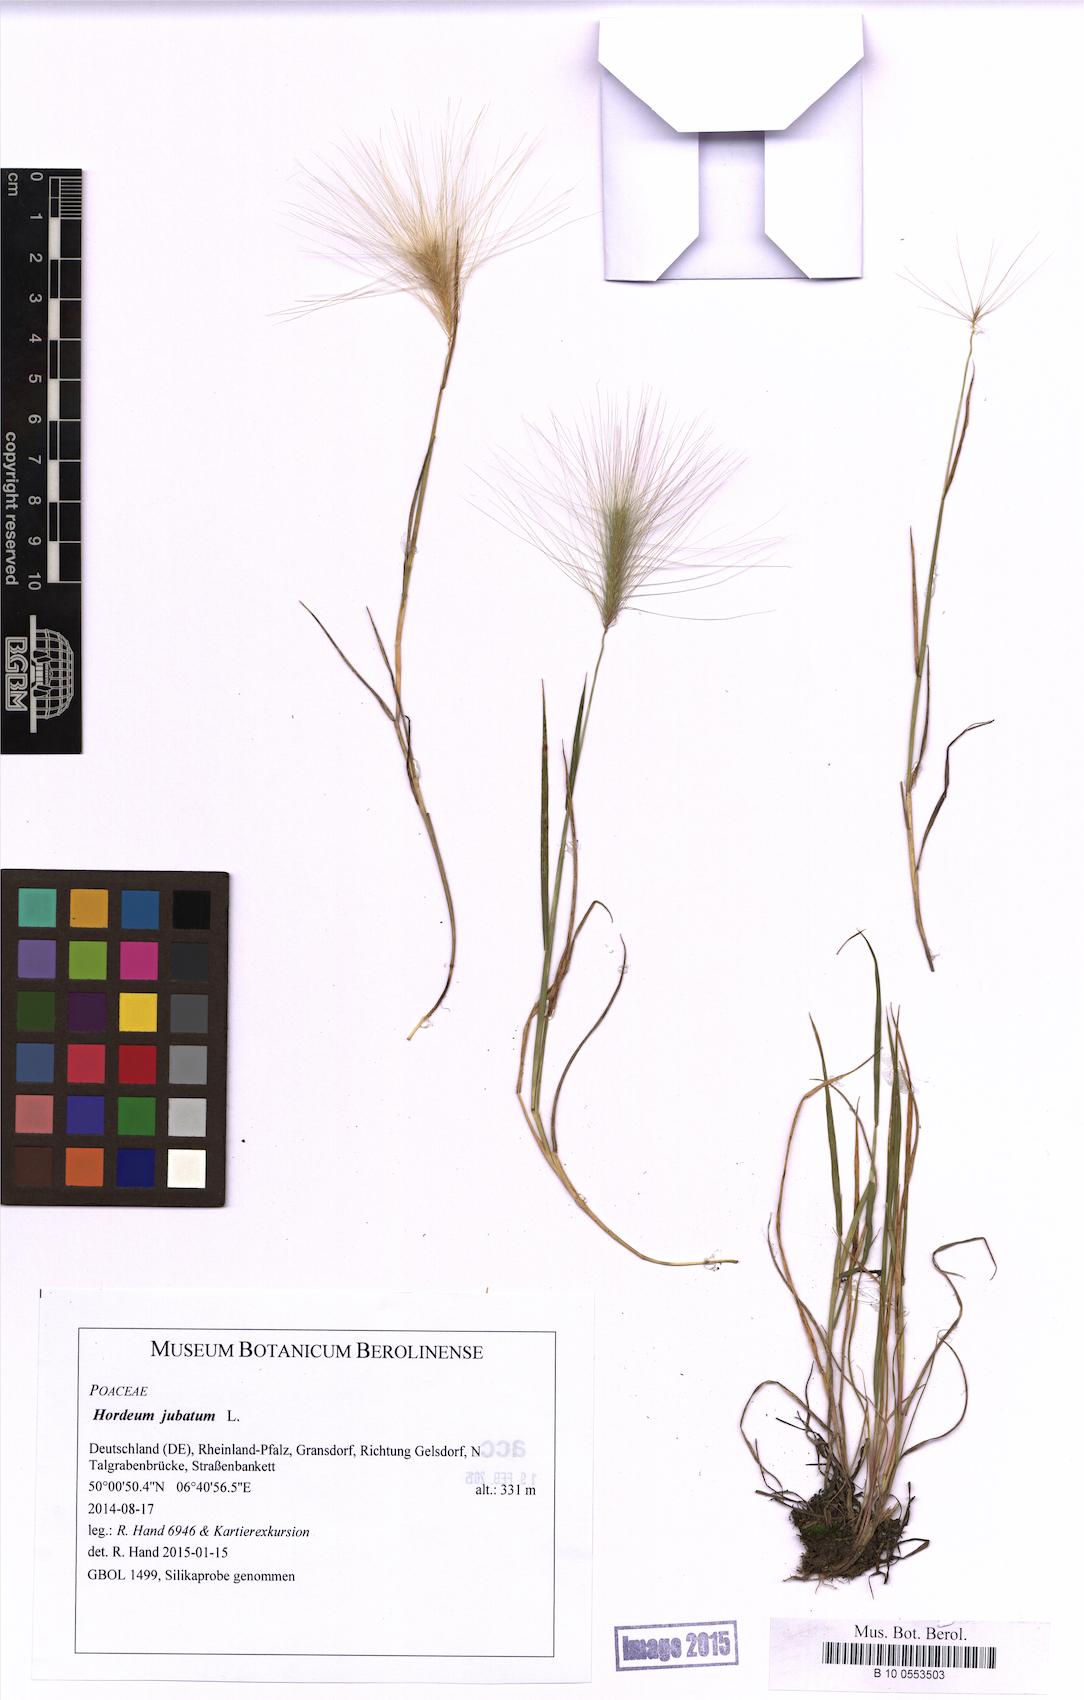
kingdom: Plantae
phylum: Tracheophyta
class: Liliopsida
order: Poales
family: Poaceae
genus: Hordeum
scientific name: Hordeum jubatum
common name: Foxtail barley
